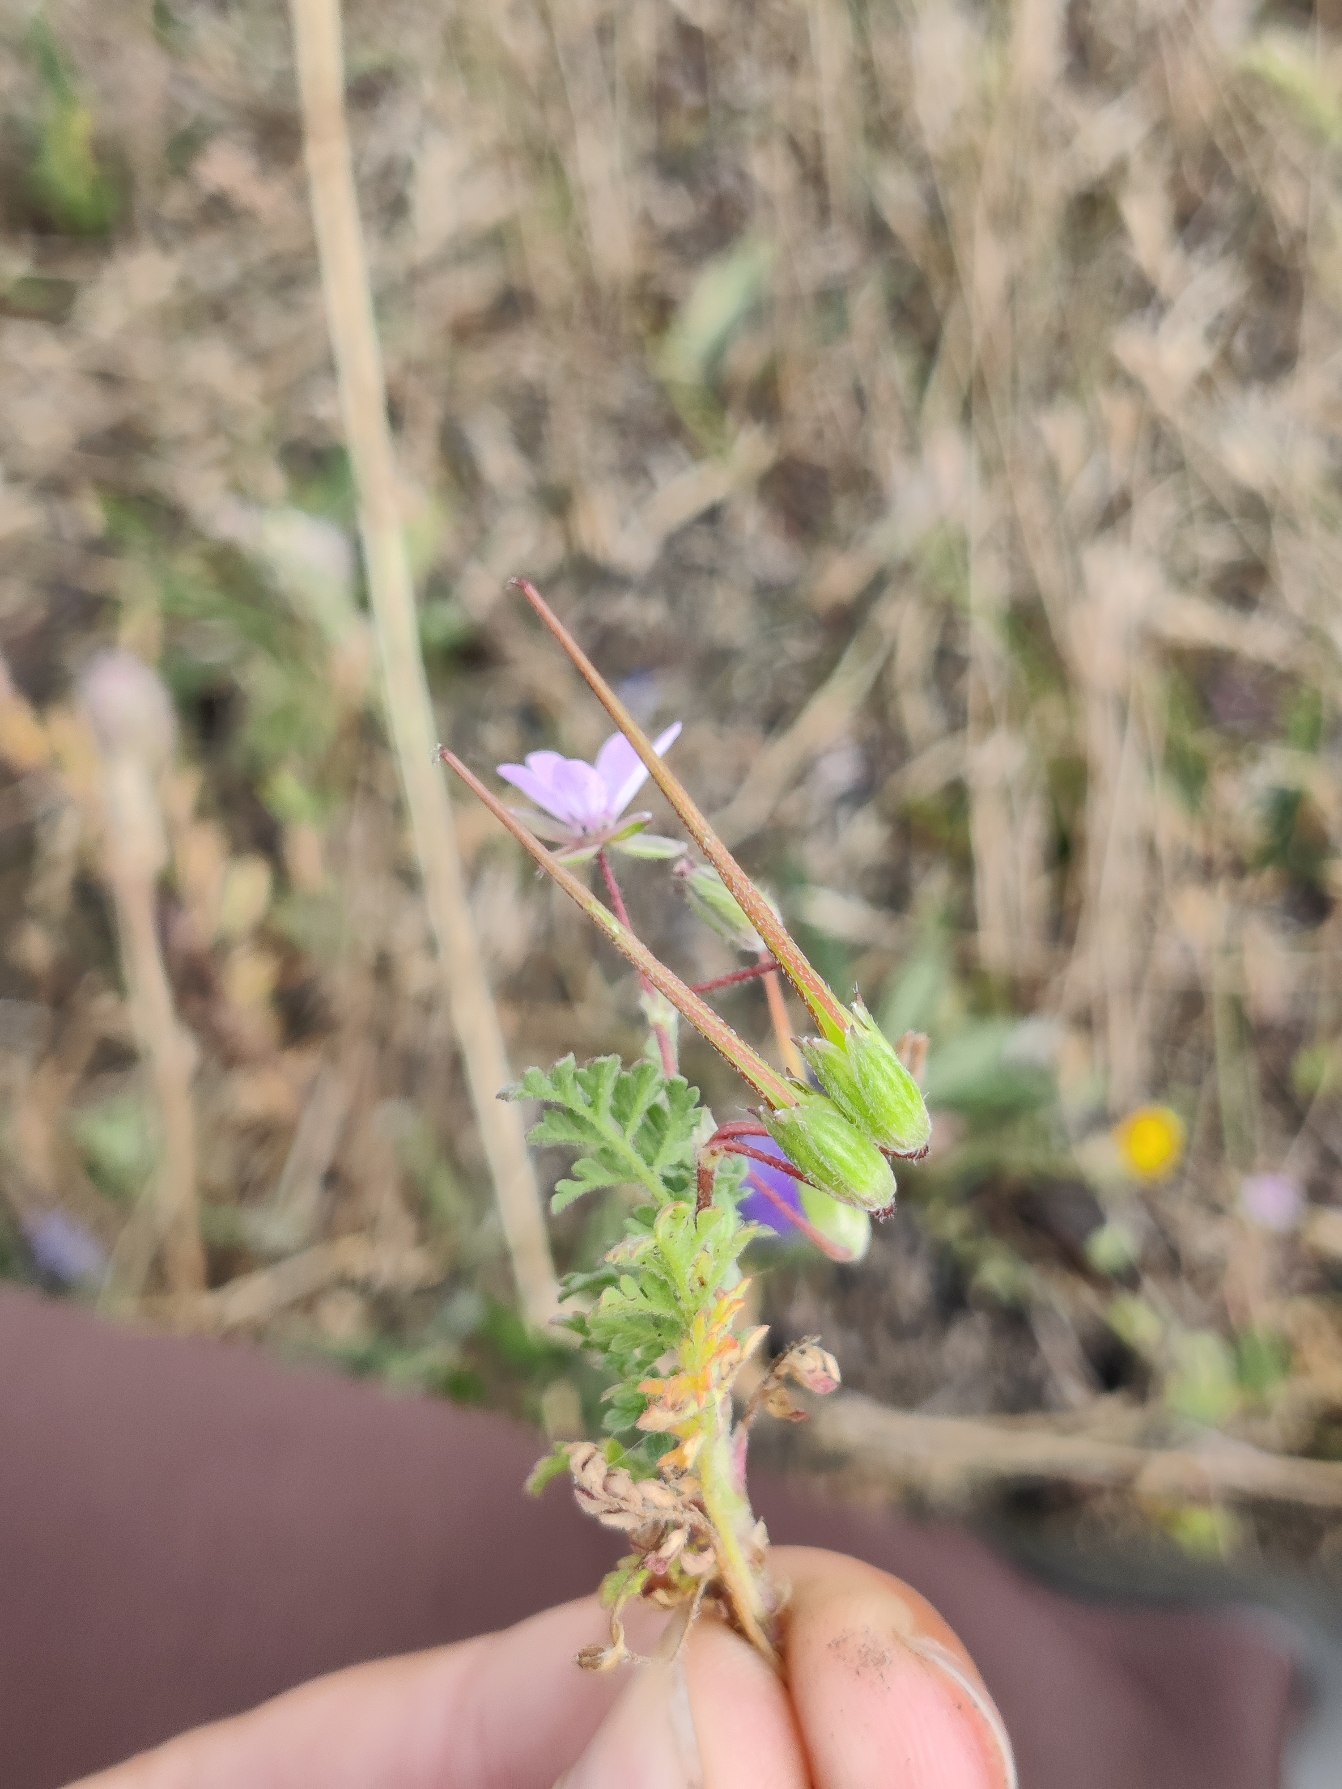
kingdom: Plantae
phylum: Tracheophyta
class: Magnoliopsida
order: Geraniales
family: Geraniaceae
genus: Erodium
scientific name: Erodium cicutarium
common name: Hejrenæb
